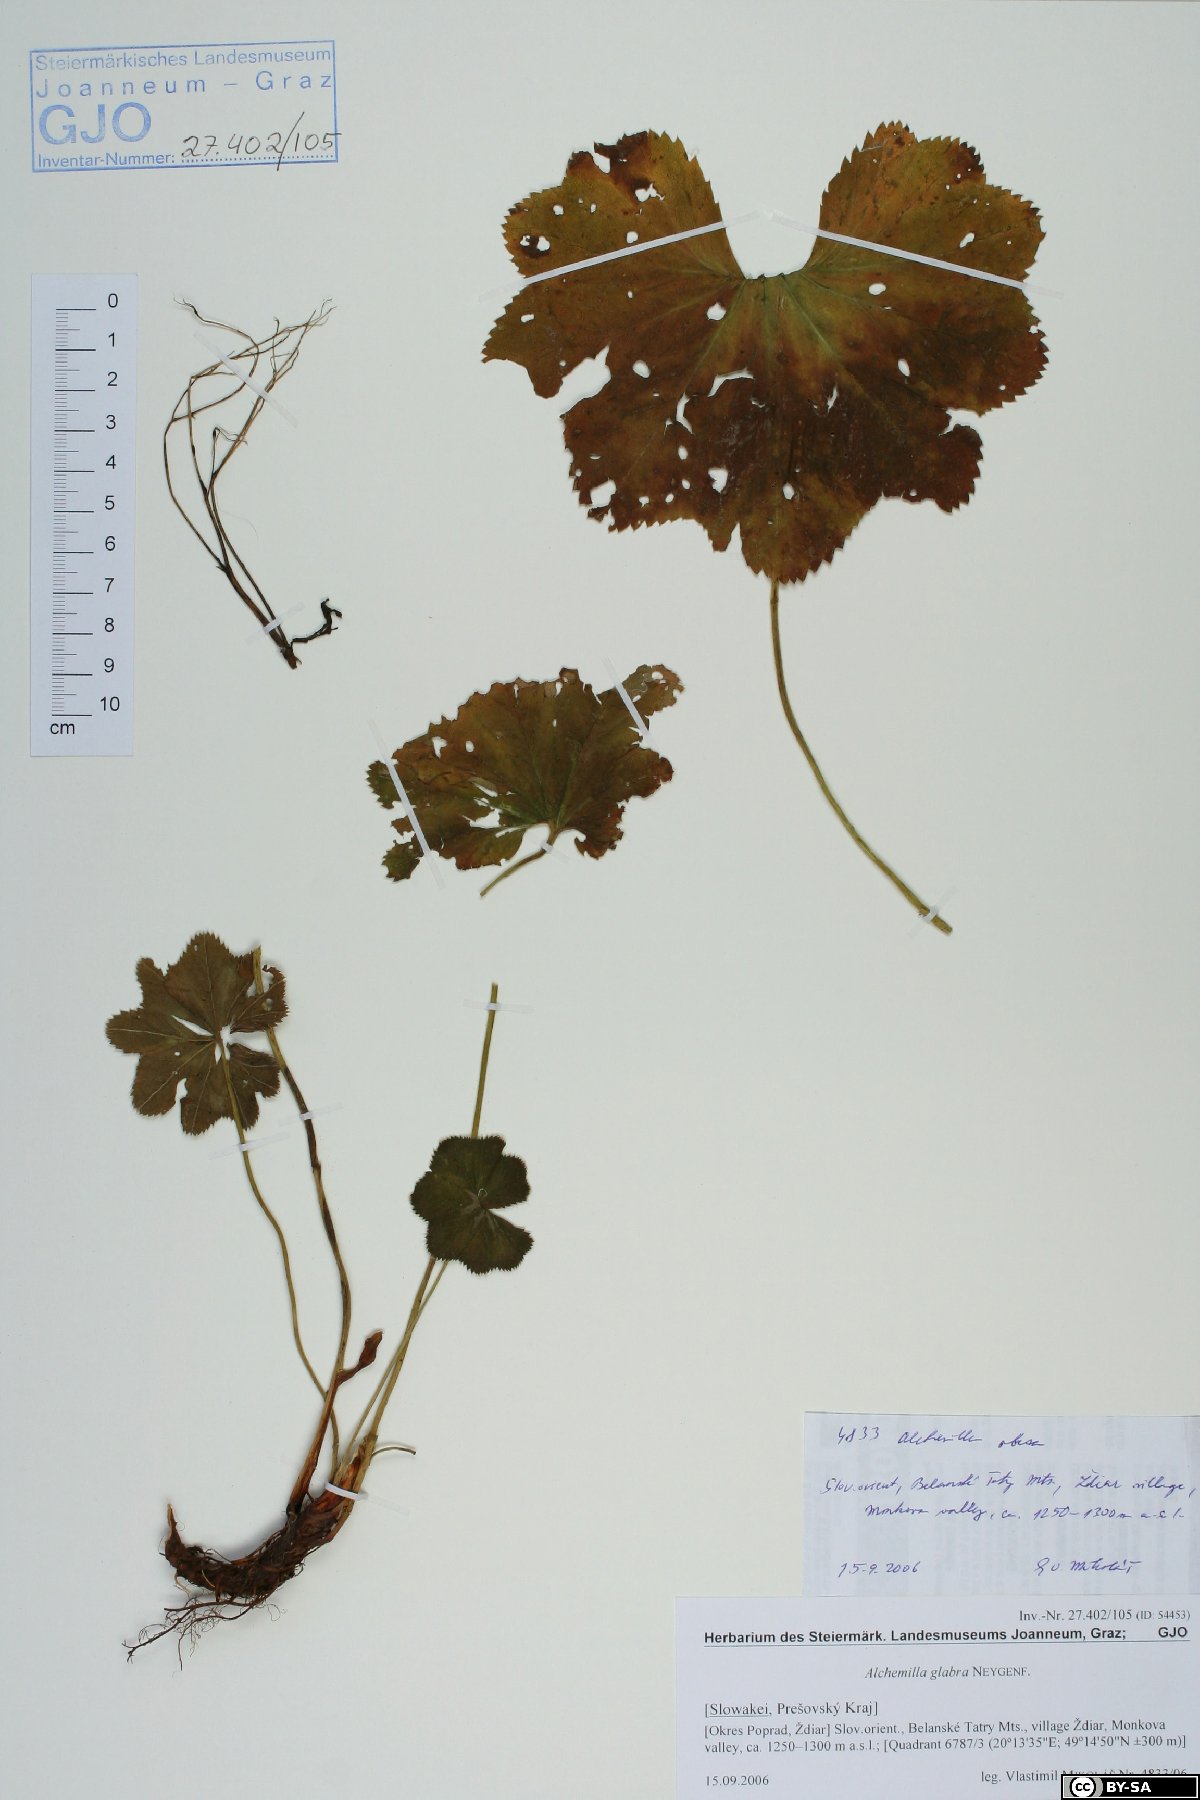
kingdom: Plantae
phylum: Tracheophyta
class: Magnoliopsida
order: Rosales
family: Rosaceae
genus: Alchemilla
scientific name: Alchemilla glabra
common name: Smooth lady's-mantle
